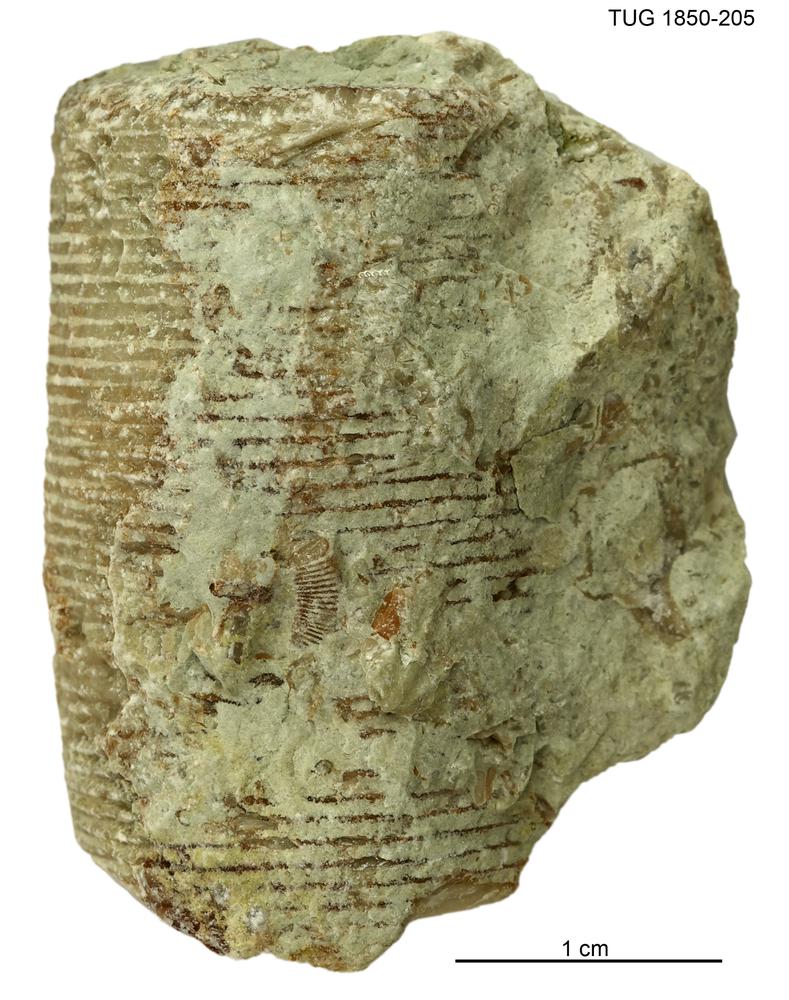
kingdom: Animalia
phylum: Echinodermata
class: Crinoidea
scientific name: Crinoidea
